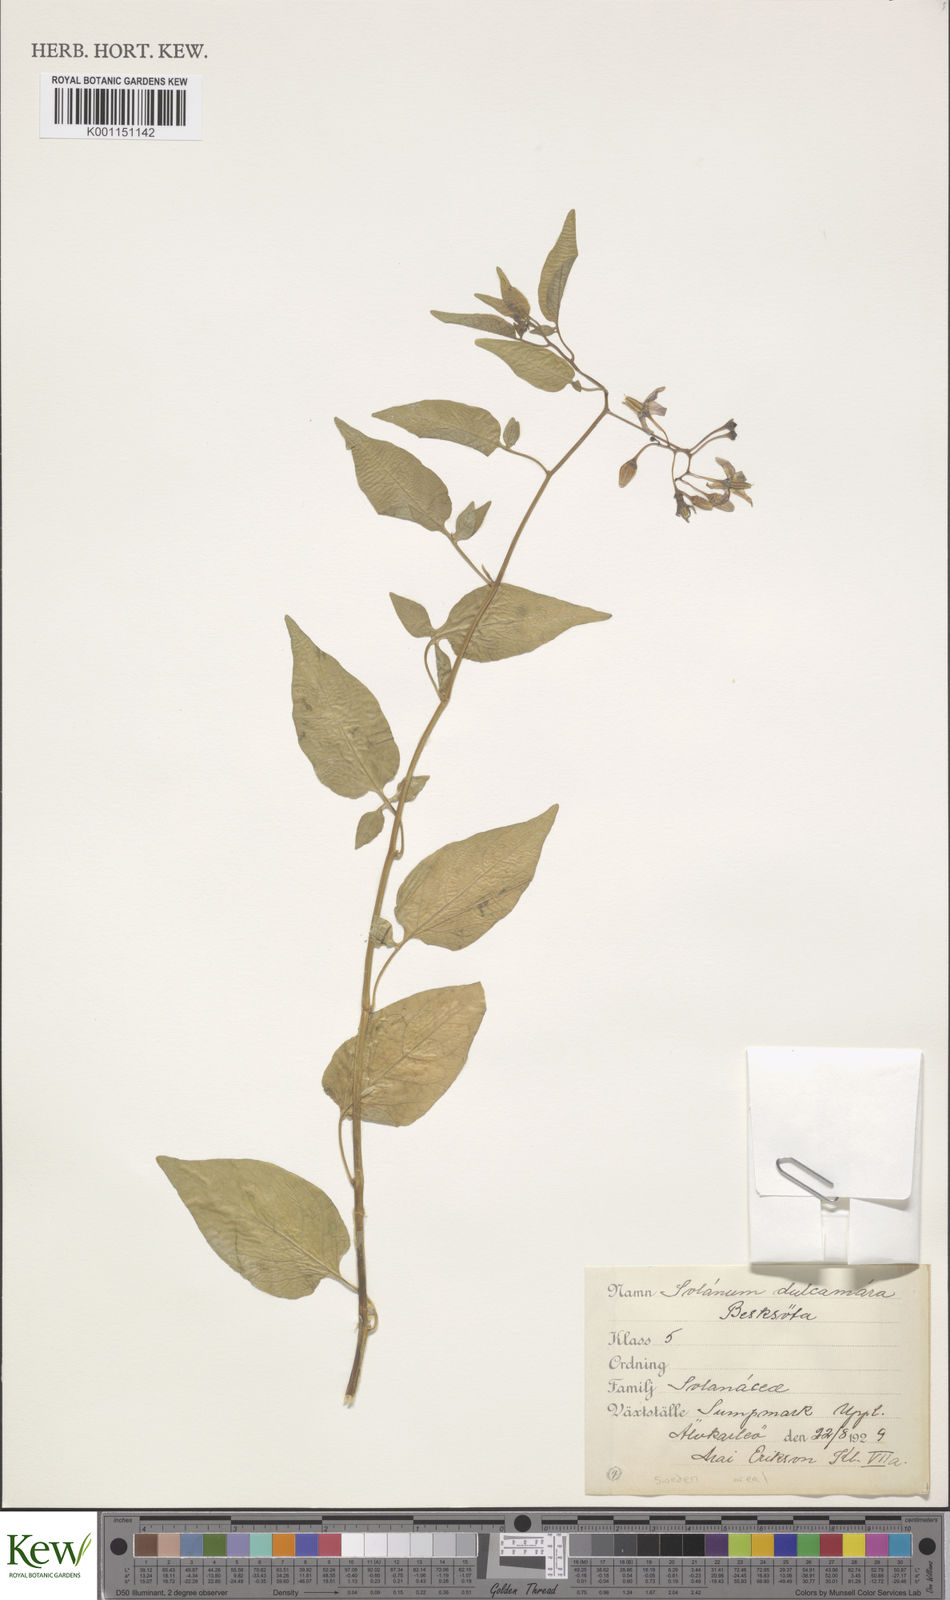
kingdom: Plantae
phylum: Tracheophyta
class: Magnoliopsida
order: Solanales
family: Solanaceae
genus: Solanum
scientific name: Solanum dulcamara
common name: Climbing nightshade
